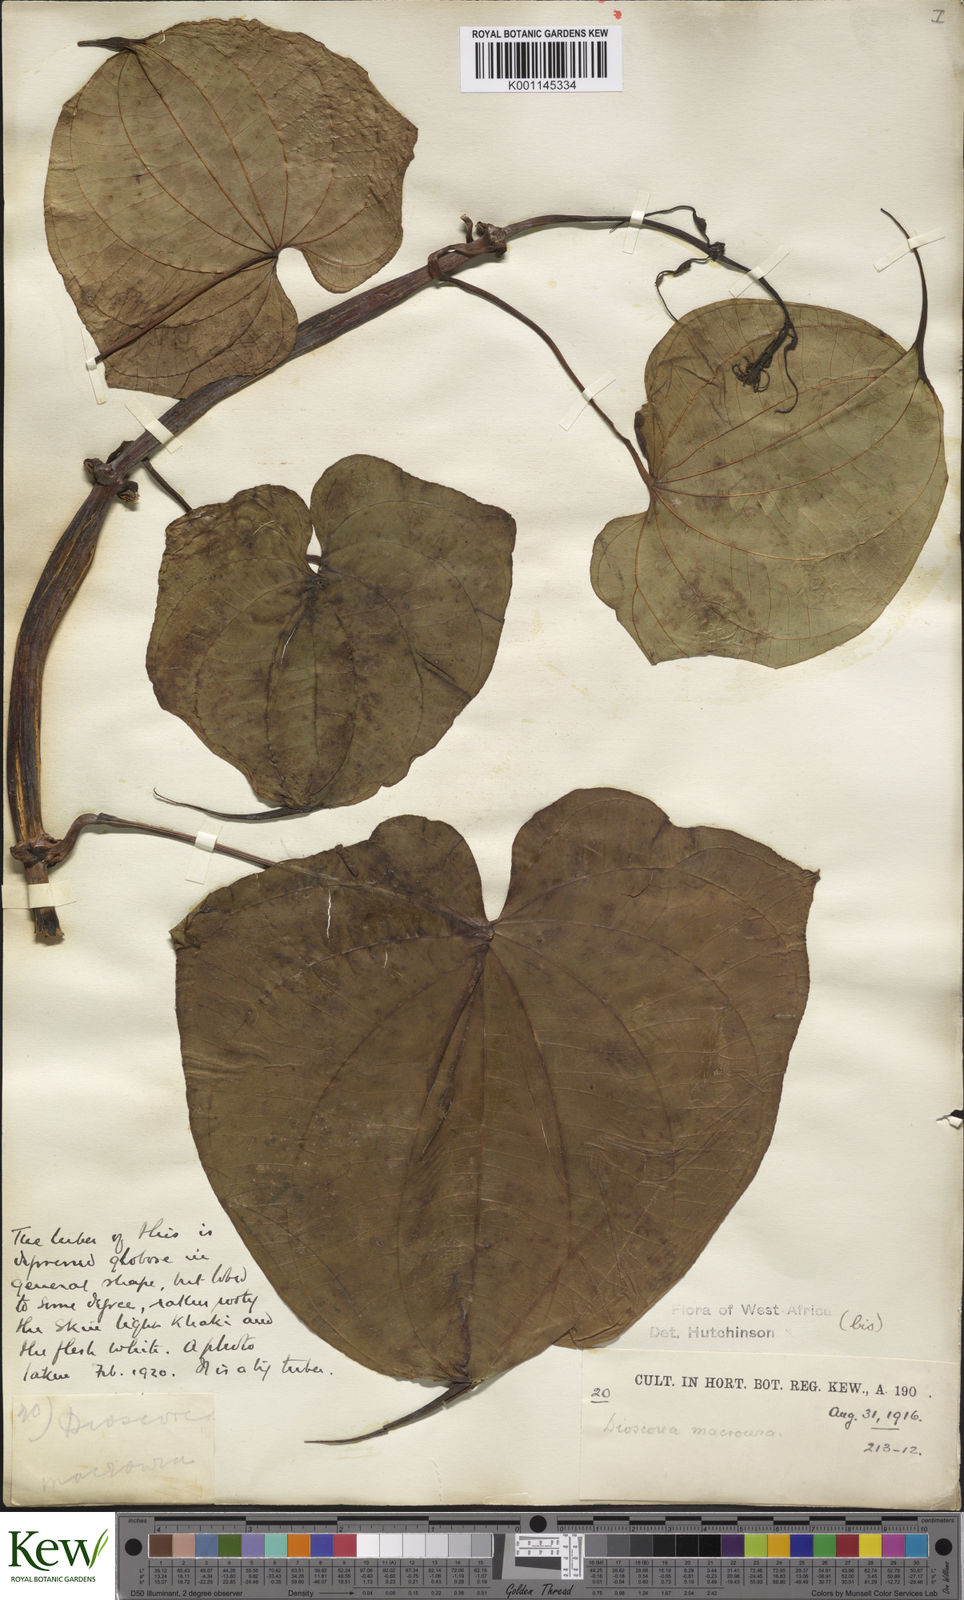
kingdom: Plantae
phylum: Tracheophyta
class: Liliopsida
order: Dioscoreales
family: Dioscoreaceae
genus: Dioscorea
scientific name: Dioscorea sansibarensis
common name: Zanzibar yam
